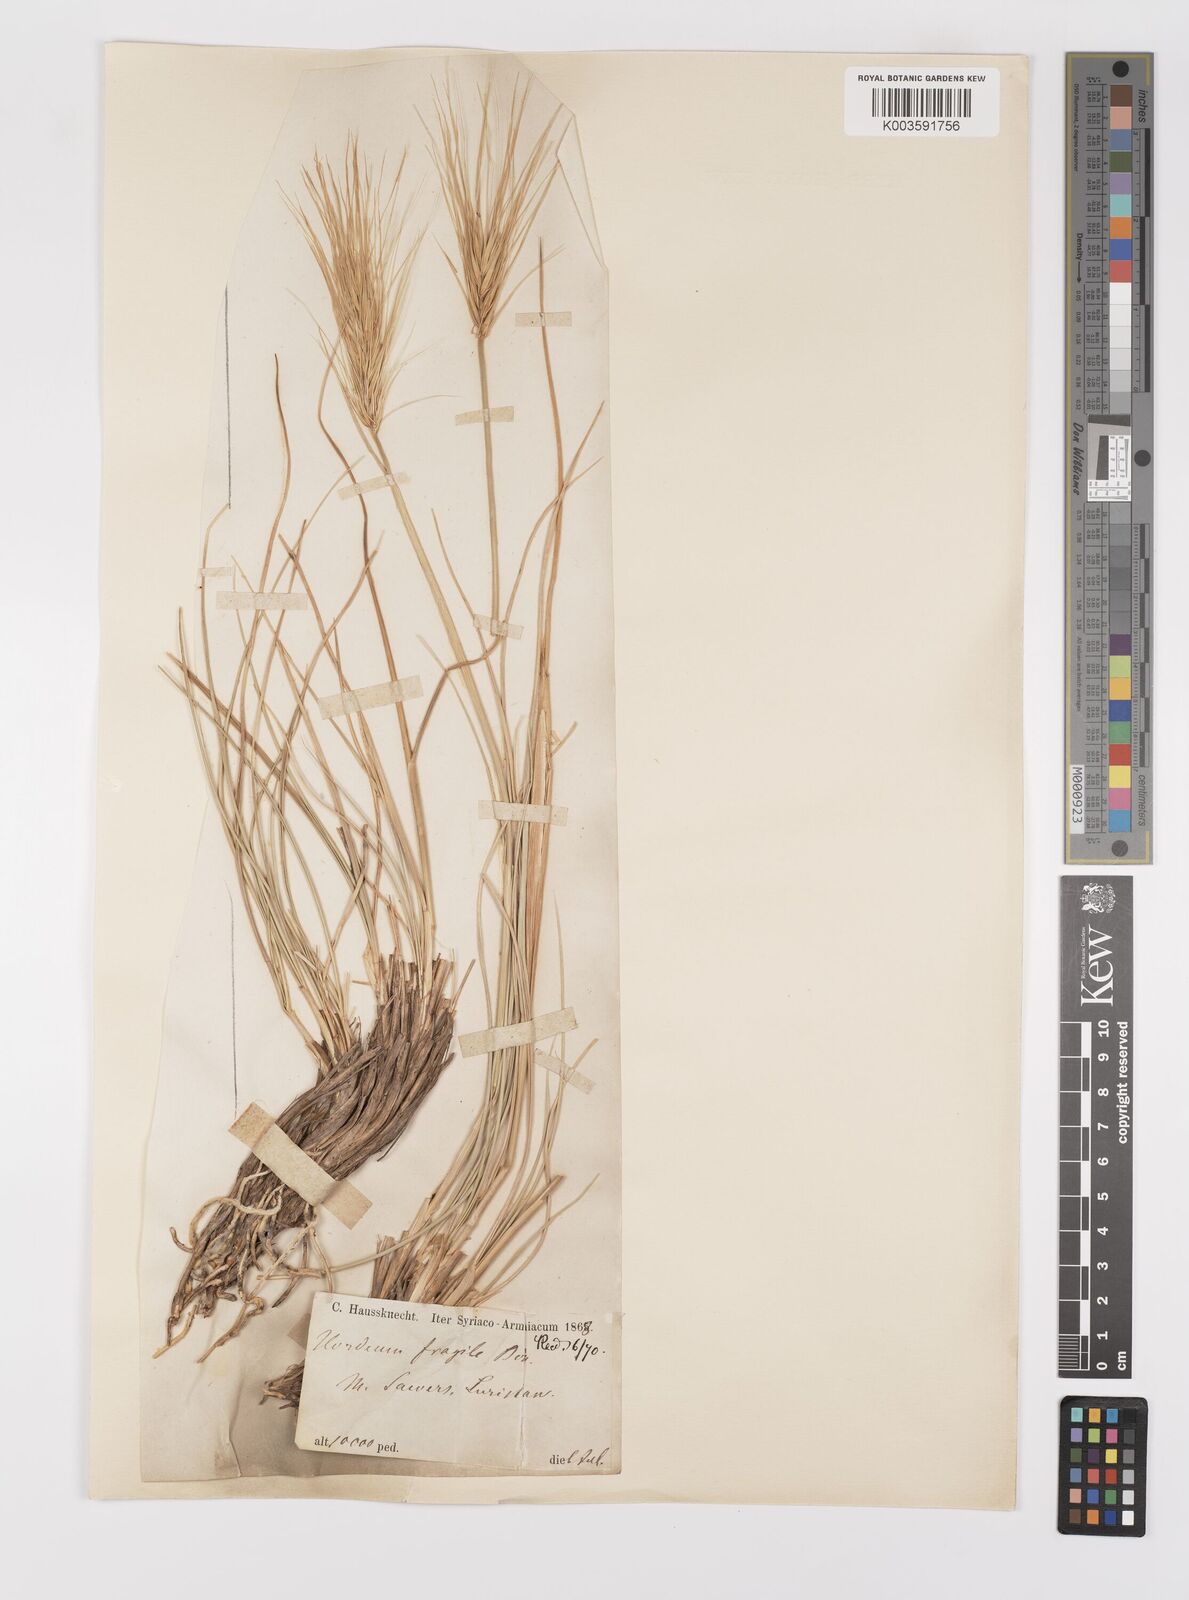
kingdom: Plantae
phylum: Tracheophyta
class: Liliopsida
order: Poales
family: Poaceae
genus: Psathyrostachys
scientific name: Psathyrostachys fragilis
